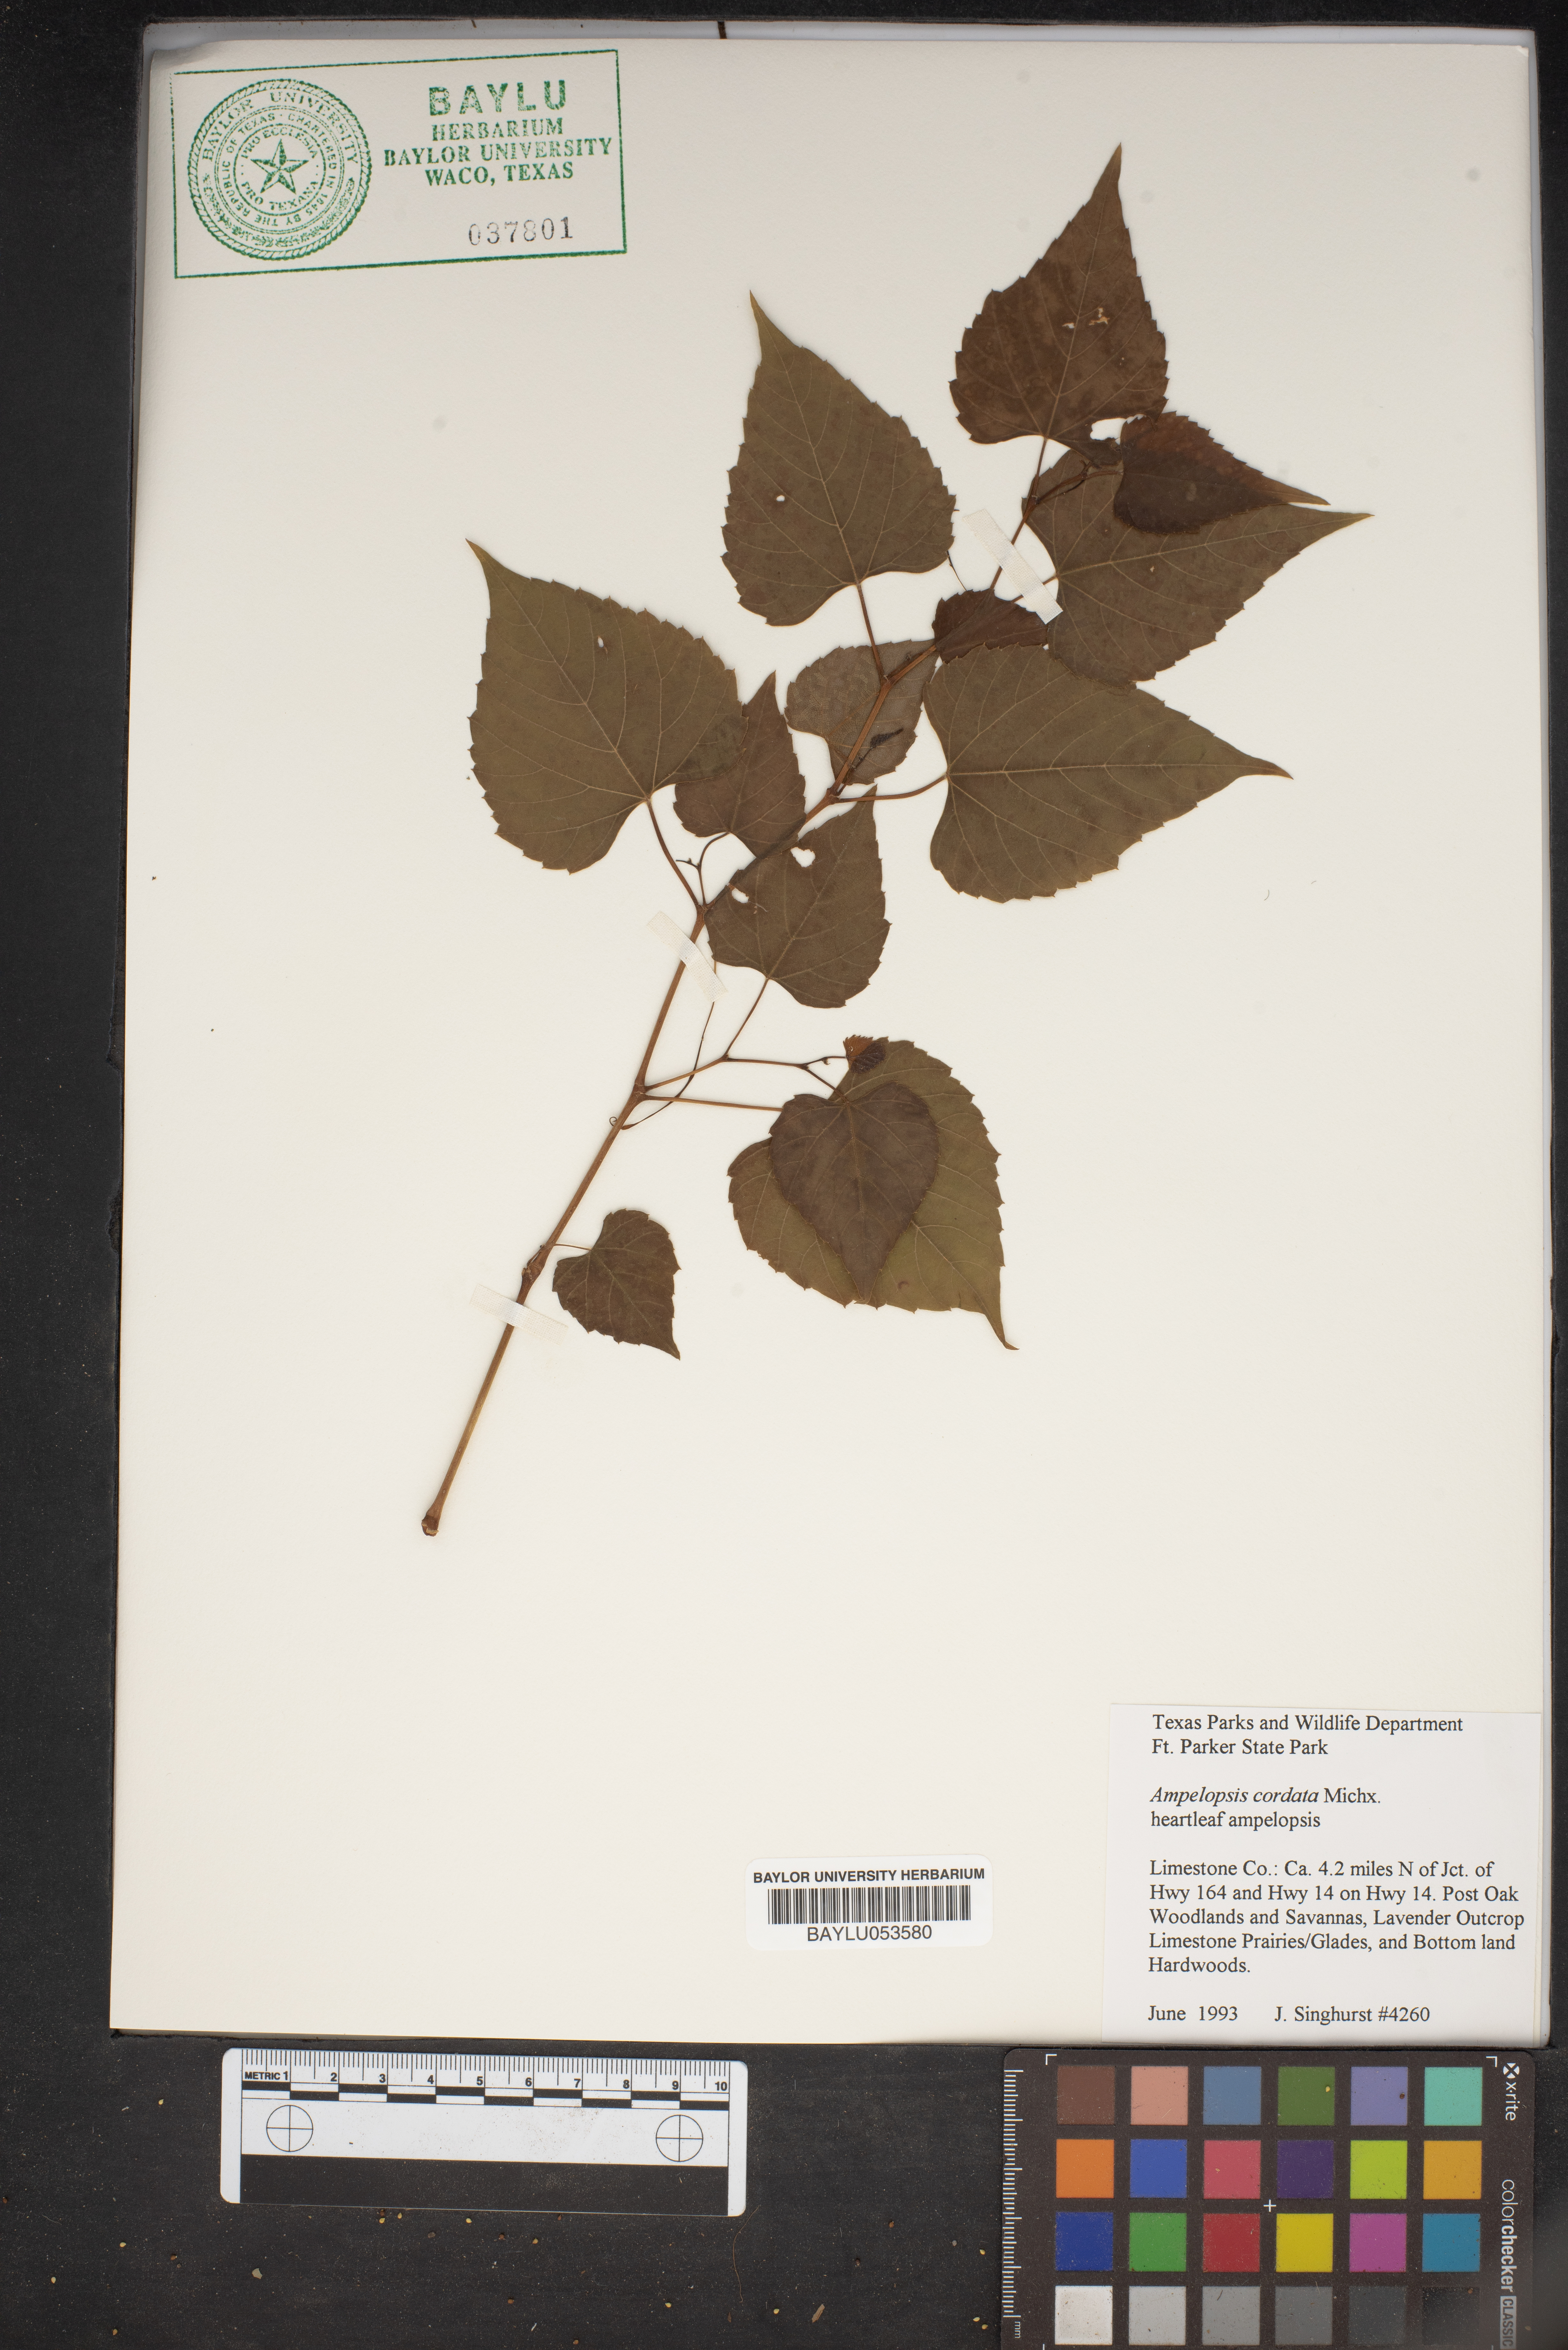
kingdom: Plantae
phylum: Tracheophyta
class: Magnoliopsida
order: Vitales
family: Vitaceae
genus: Ampelopsis
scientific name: Ampelopsis cordata
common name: Heart-leaf ampelopsis
